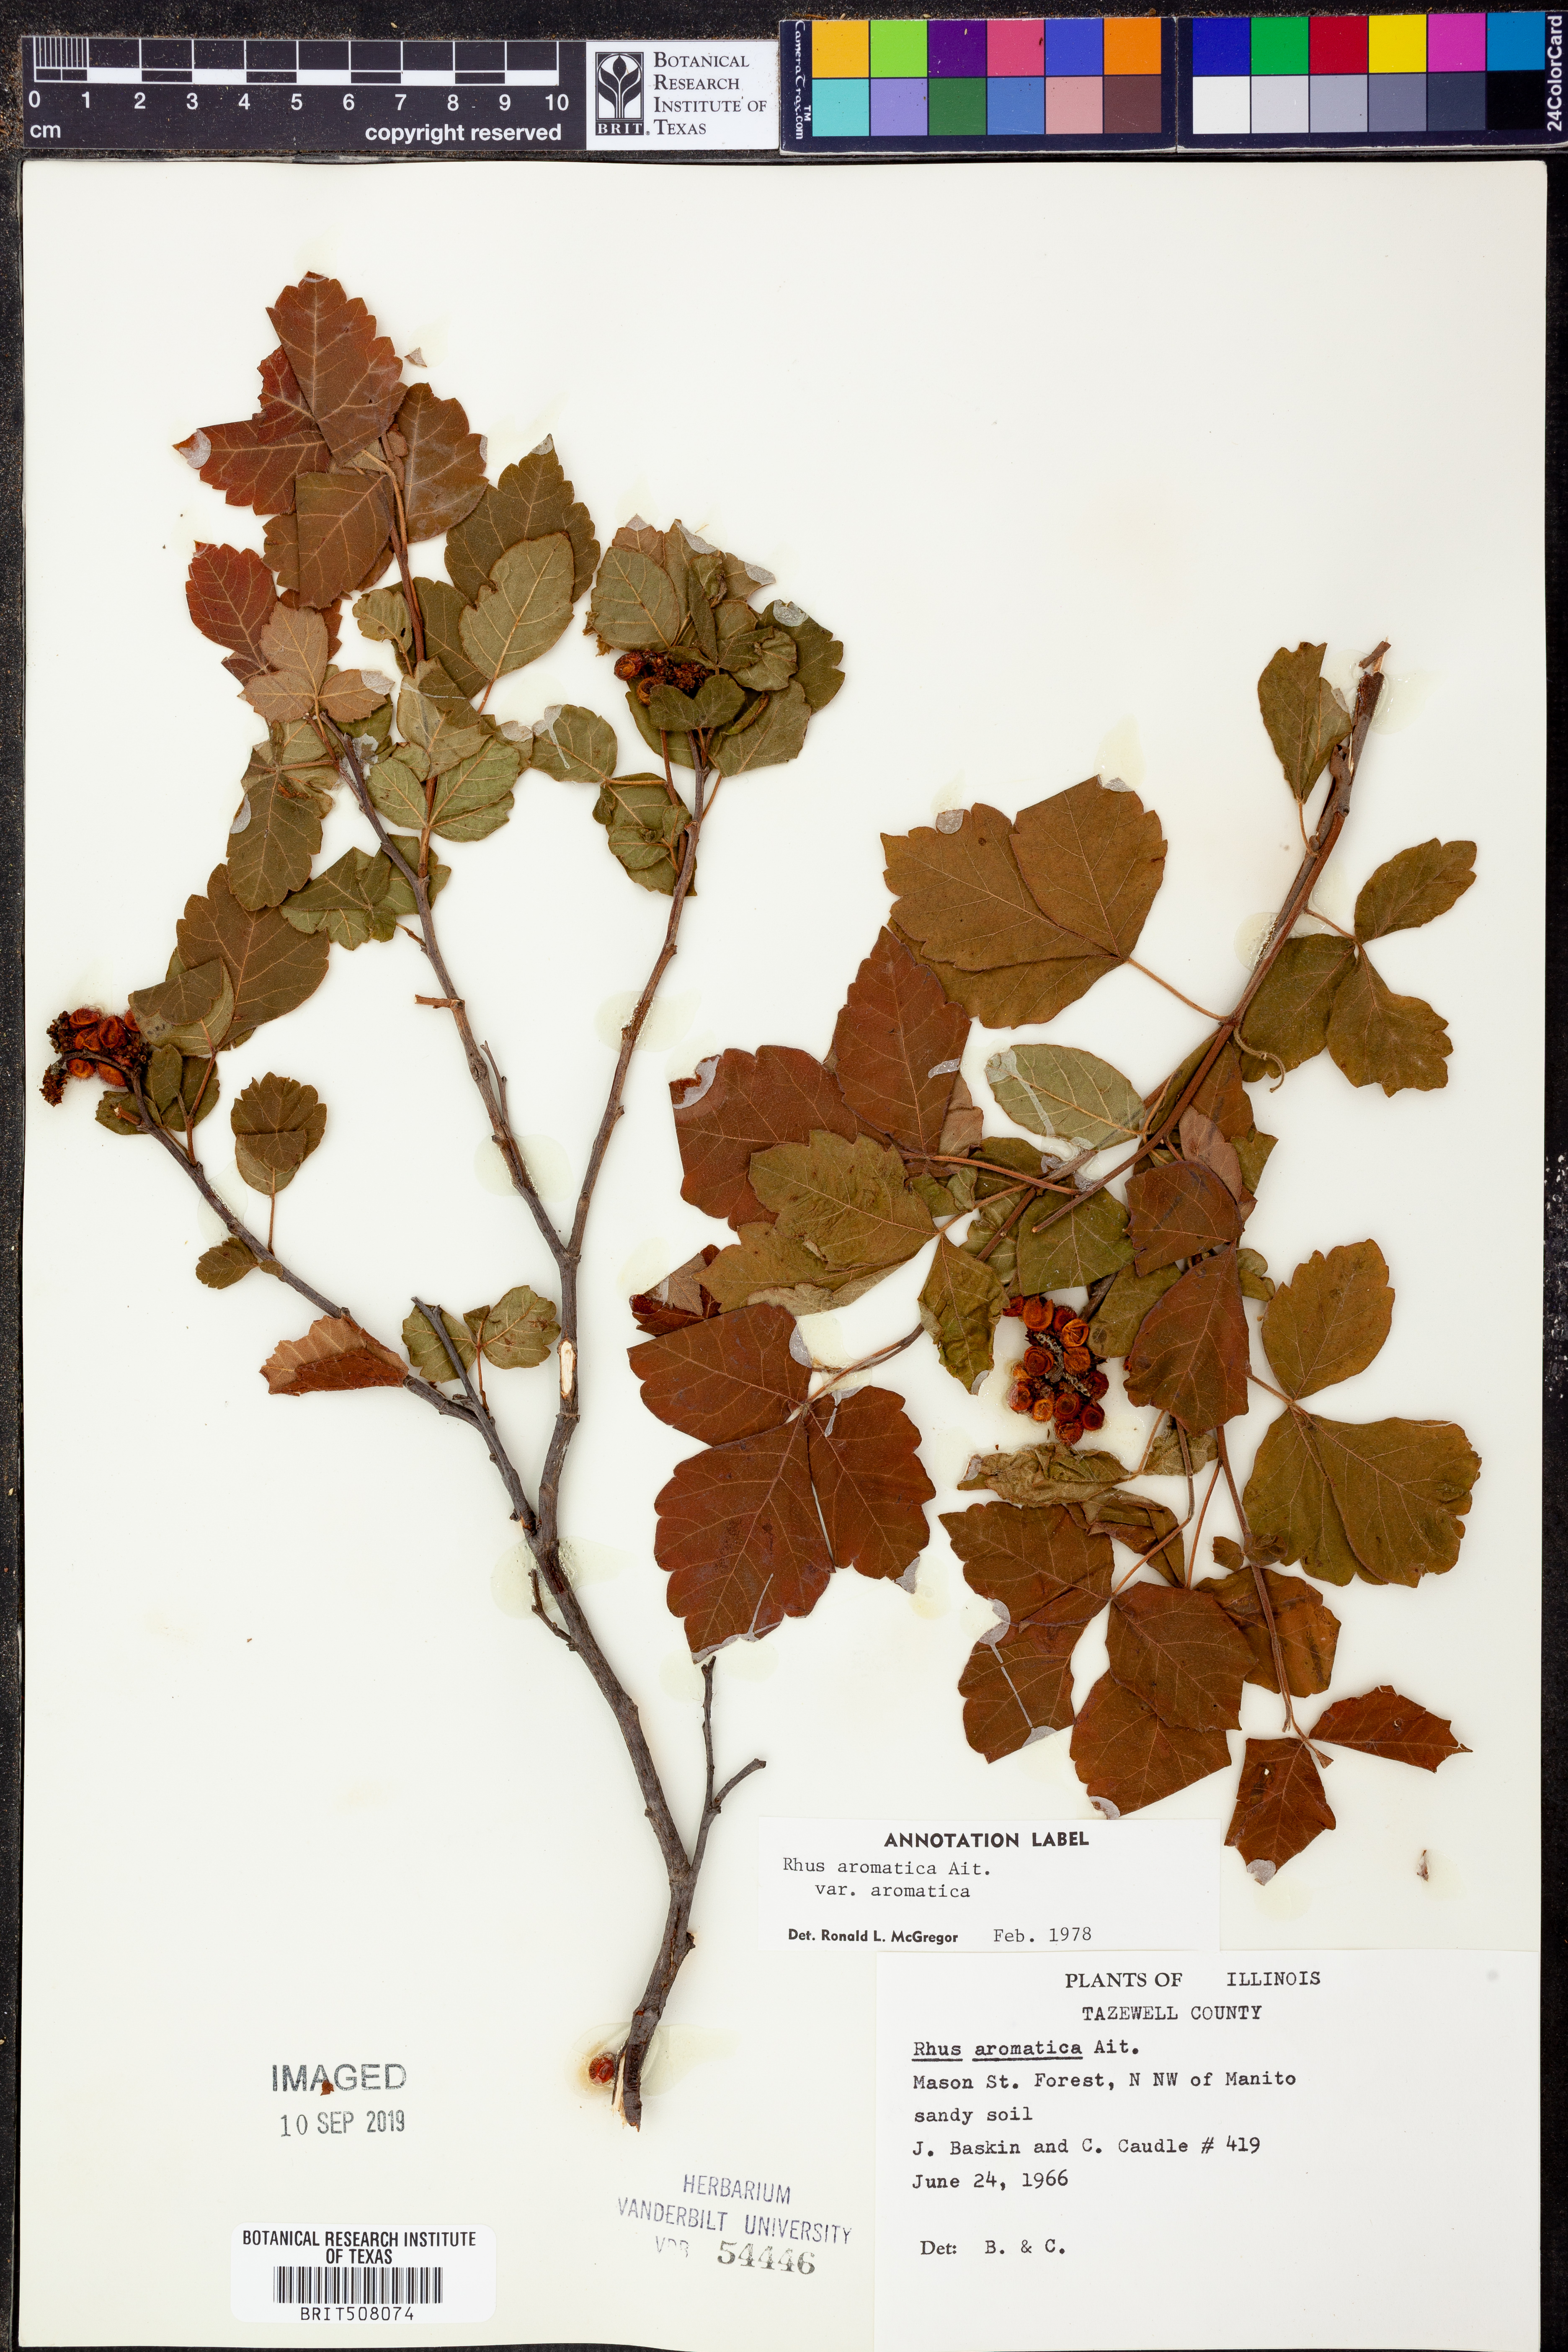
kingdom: Plantae
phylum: Tracheophyta
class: Magnoliopsida
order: Sapindales
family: Anacardiaceae
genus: Rhus
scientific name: Rhus aromatica
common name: Aromatic sumac
